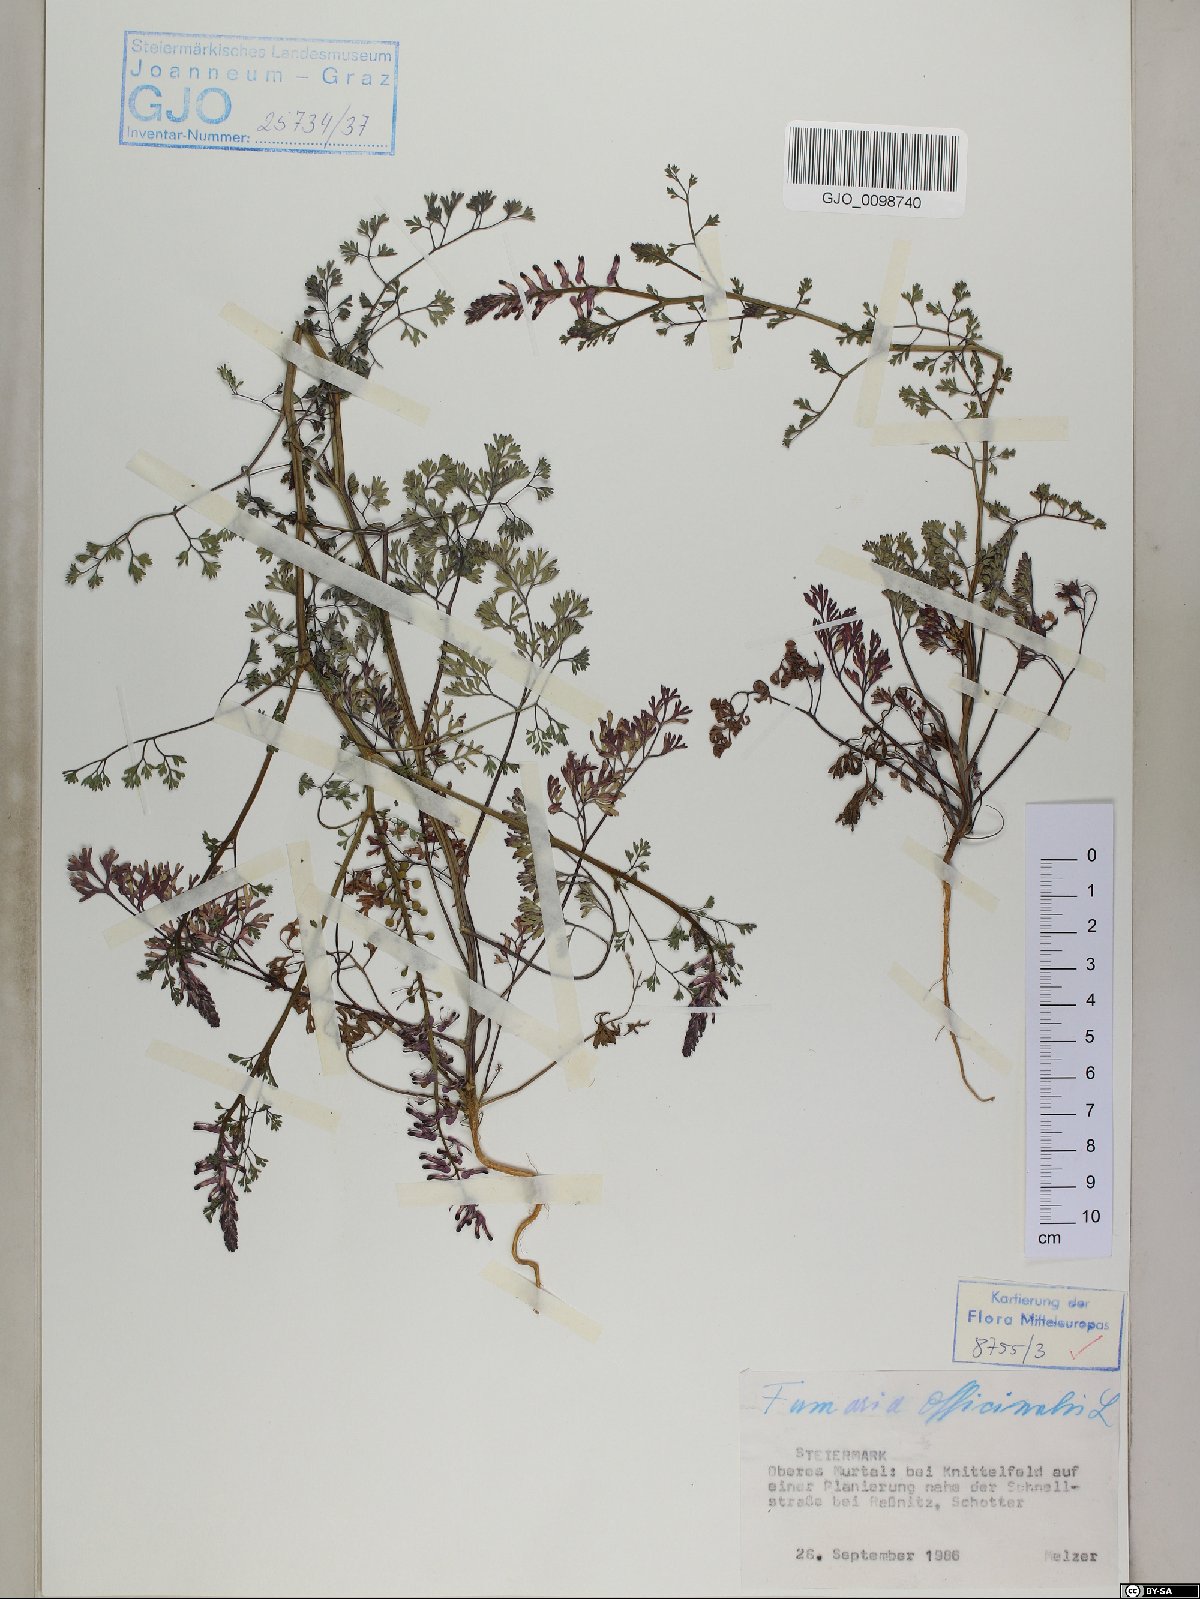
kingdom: Plantae
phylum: Tracheophyta
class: Magnoliopsida
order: Ranunculales
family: Papaveraceae
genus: Fumaria
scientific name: Fumaria officinalis
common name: Common fumitory
